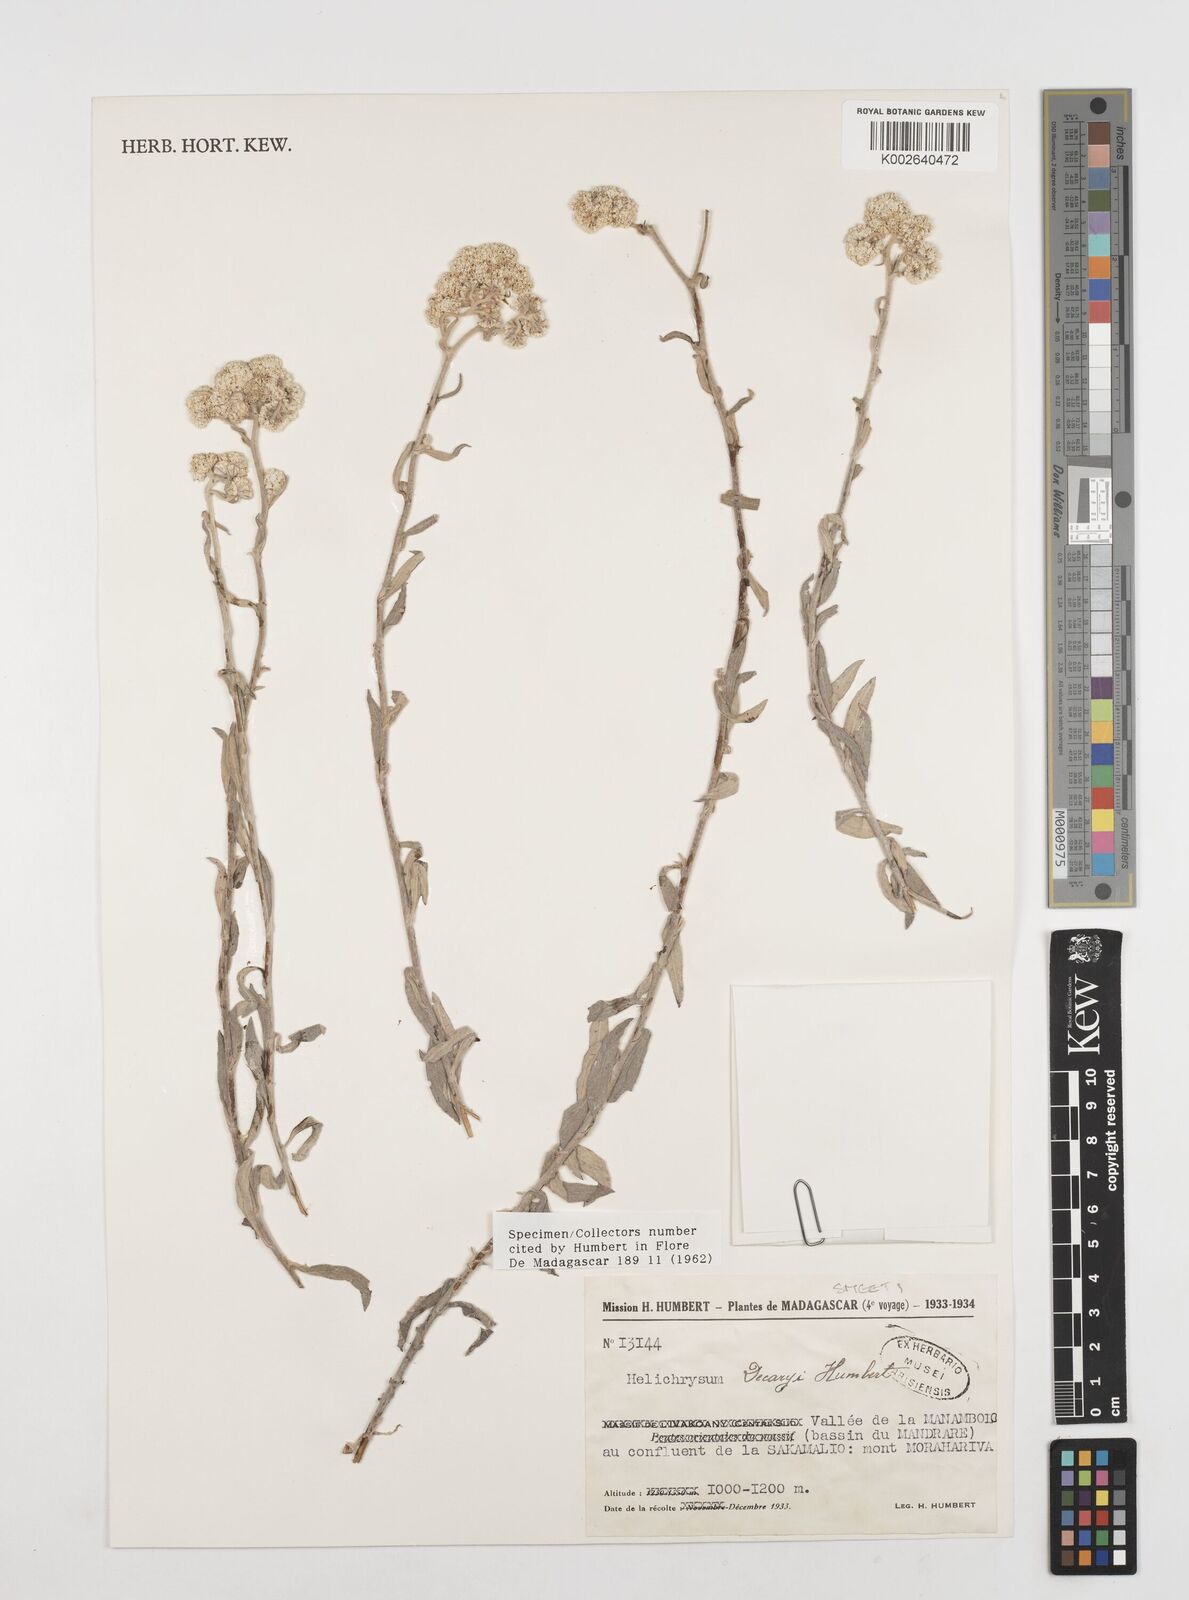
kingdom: Plantae
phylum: Tracheophyta
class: Magnoliopsida
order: Asterales
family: Asteraceae
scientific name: Asteraceae
